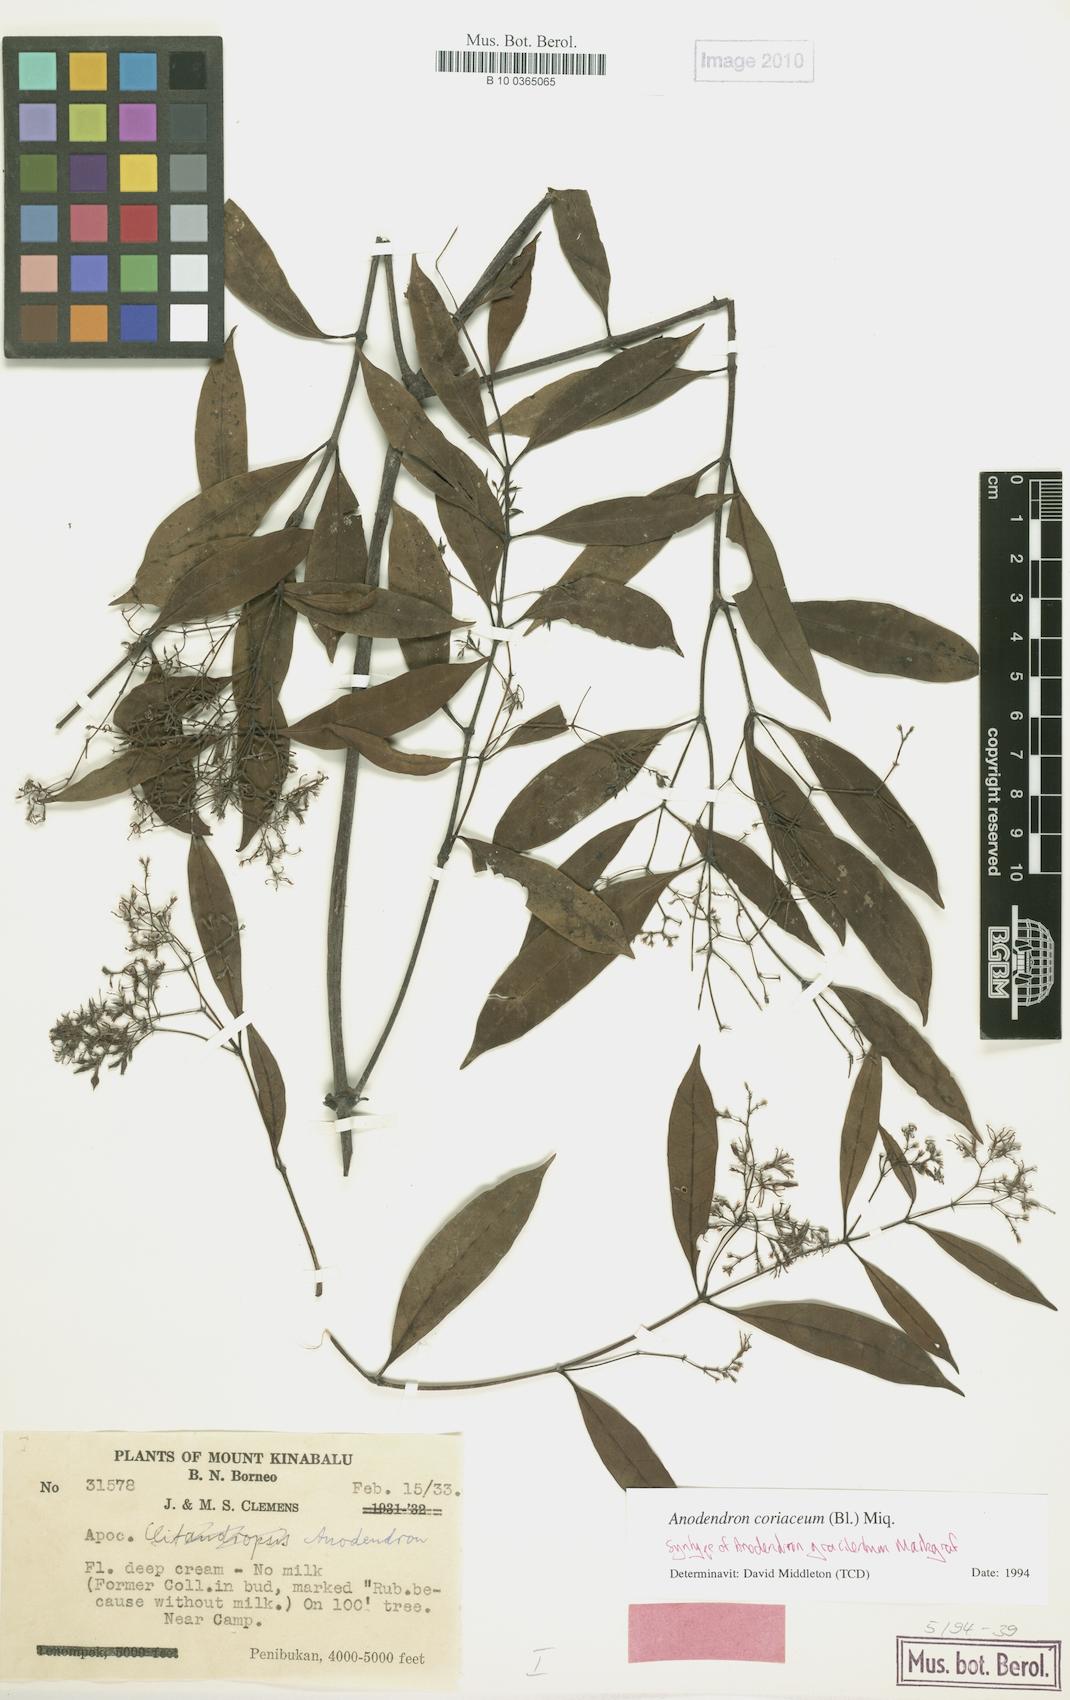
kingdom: Plantae
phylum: Tracheophyta
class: Magnoliopsida
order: Gentianales
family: Apocynaceae
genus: Anodendron
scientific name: Anodendron coriaceum
